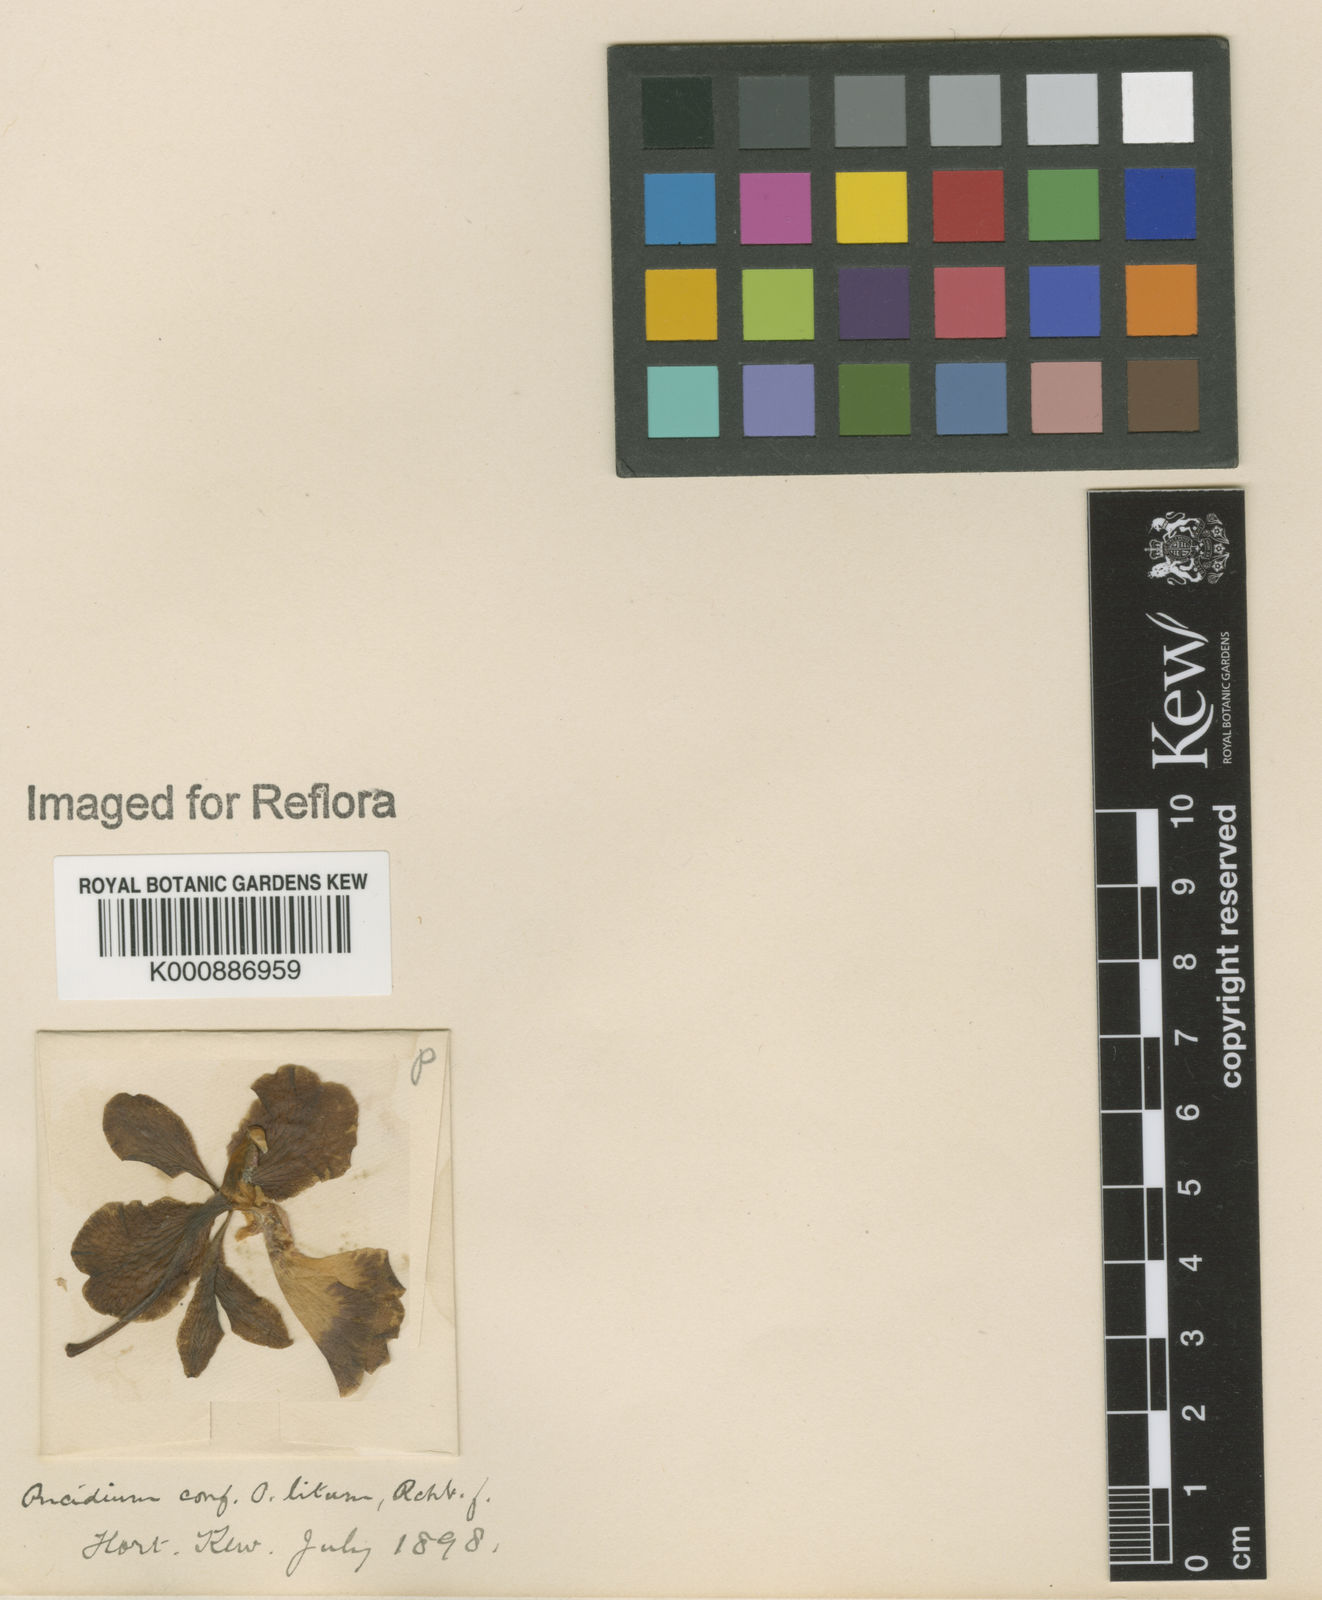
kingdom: Plantae
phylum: Tracheophyta
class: Liliopsida
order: Asparagales
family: Orchidaceae
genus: Gomesa
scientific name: Gomesa imperatoris-maximiliani
